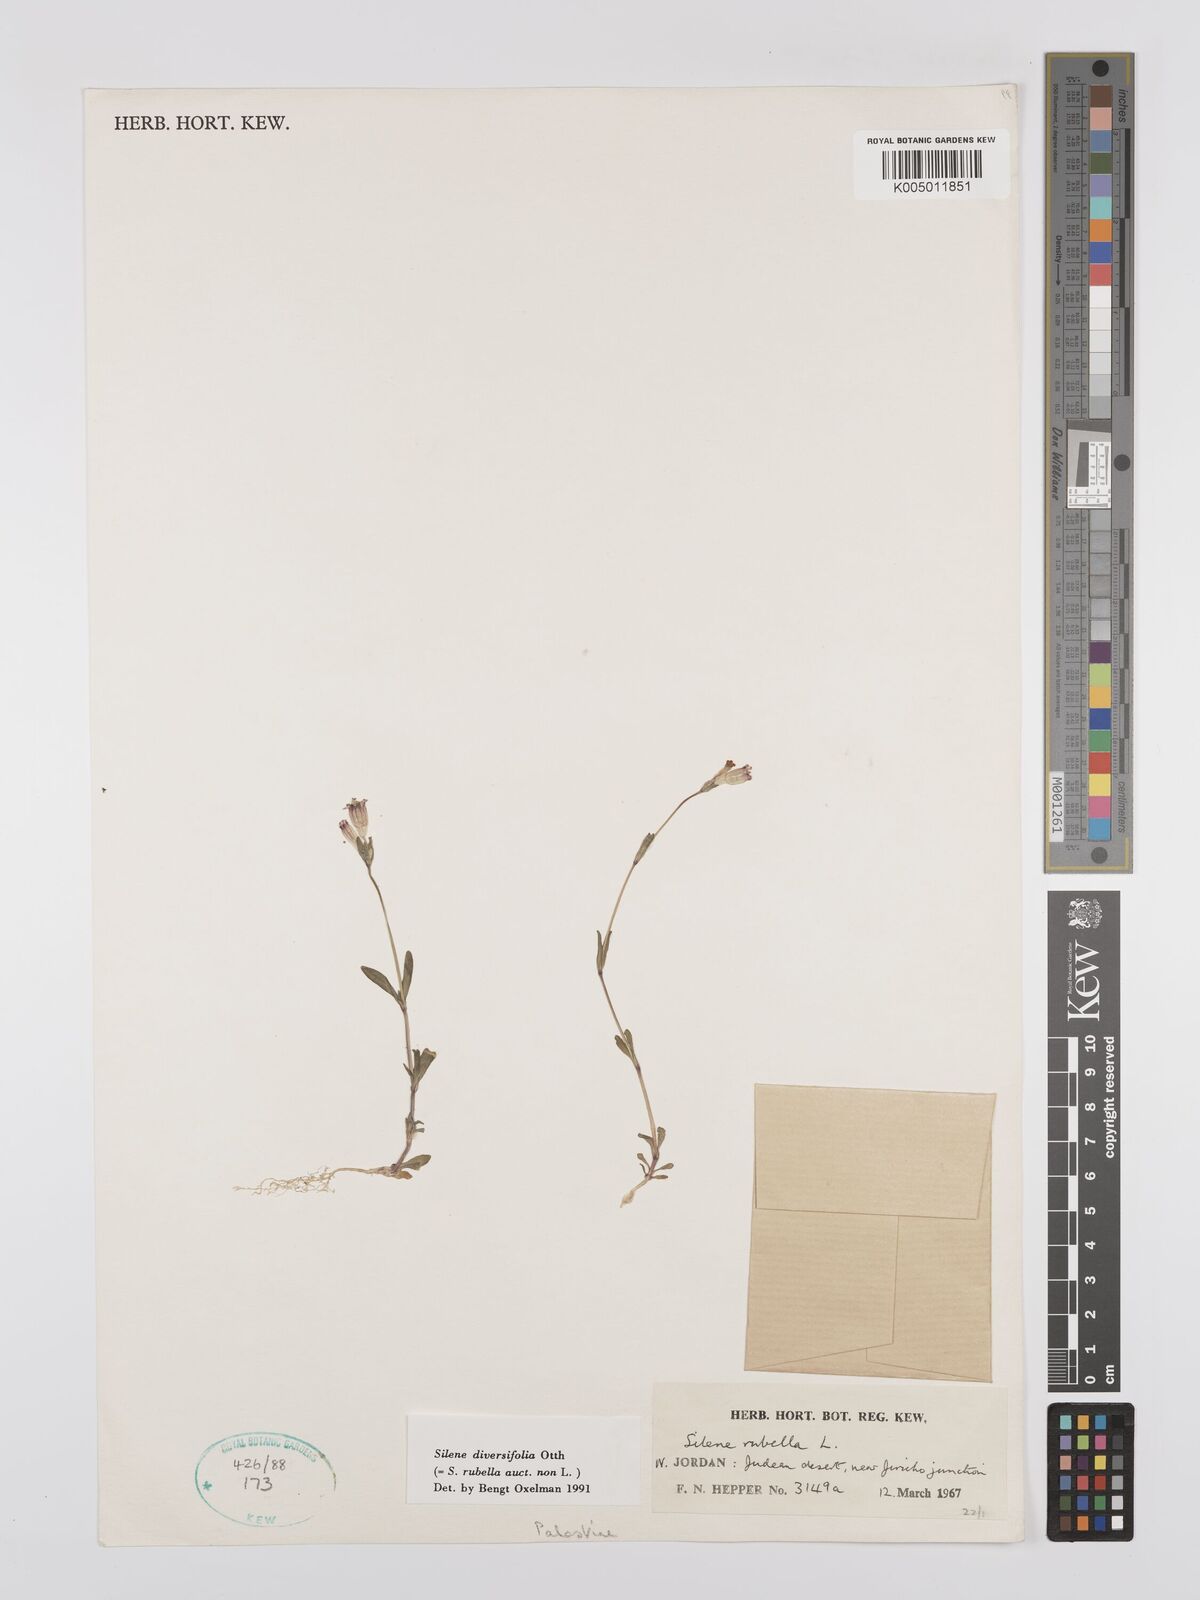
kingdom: Plantae
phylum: Tracheophyta
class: Magnoliopsida
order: Caryophyllales
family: Caryophyllaceae
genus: Silene
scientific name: Silene rubella
